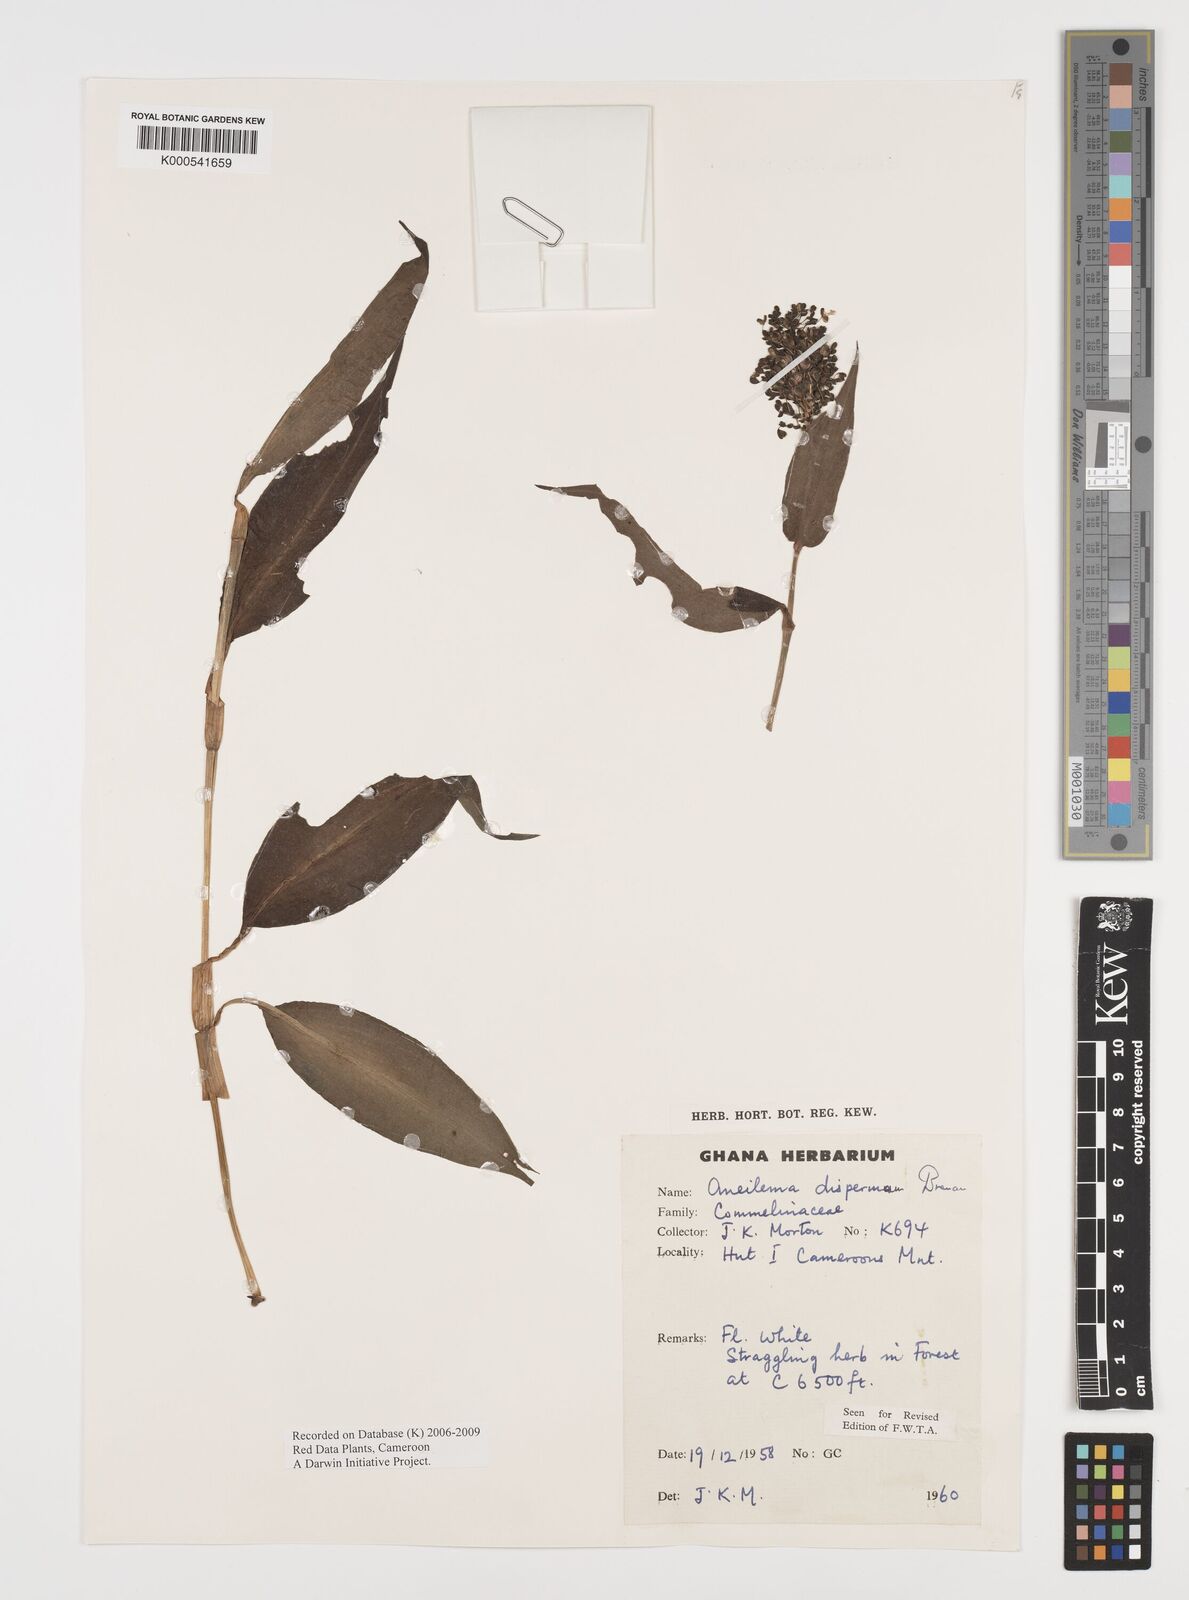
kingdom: Plantae
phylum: Tracheophyta
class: Liliopsida
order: Commelinales
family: Commelinaceae
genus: Aneilema
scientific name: Aneilema dispermum
